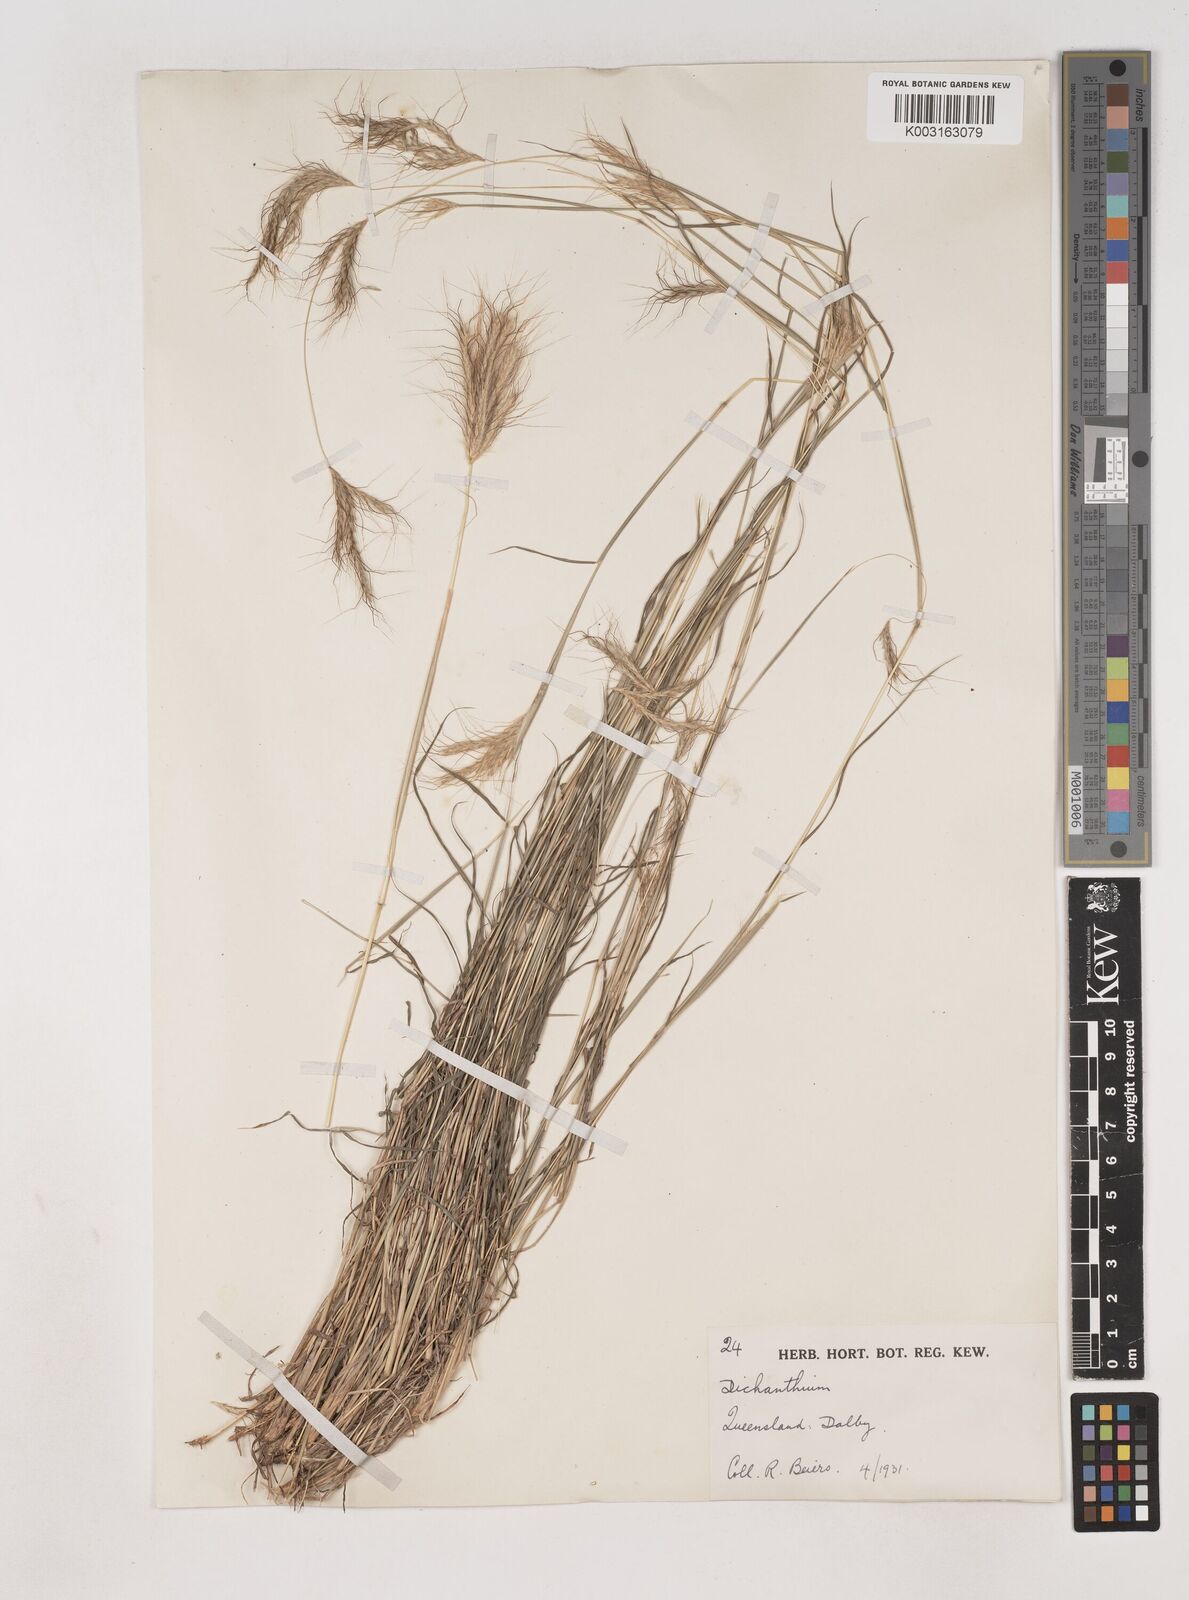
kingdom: Plantae
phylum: Tracheophyta
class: Liliopsida
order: Poales
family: Poaceae
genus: Dichanthium
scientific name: Dichanthium sericeum
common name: Silky bluestem
